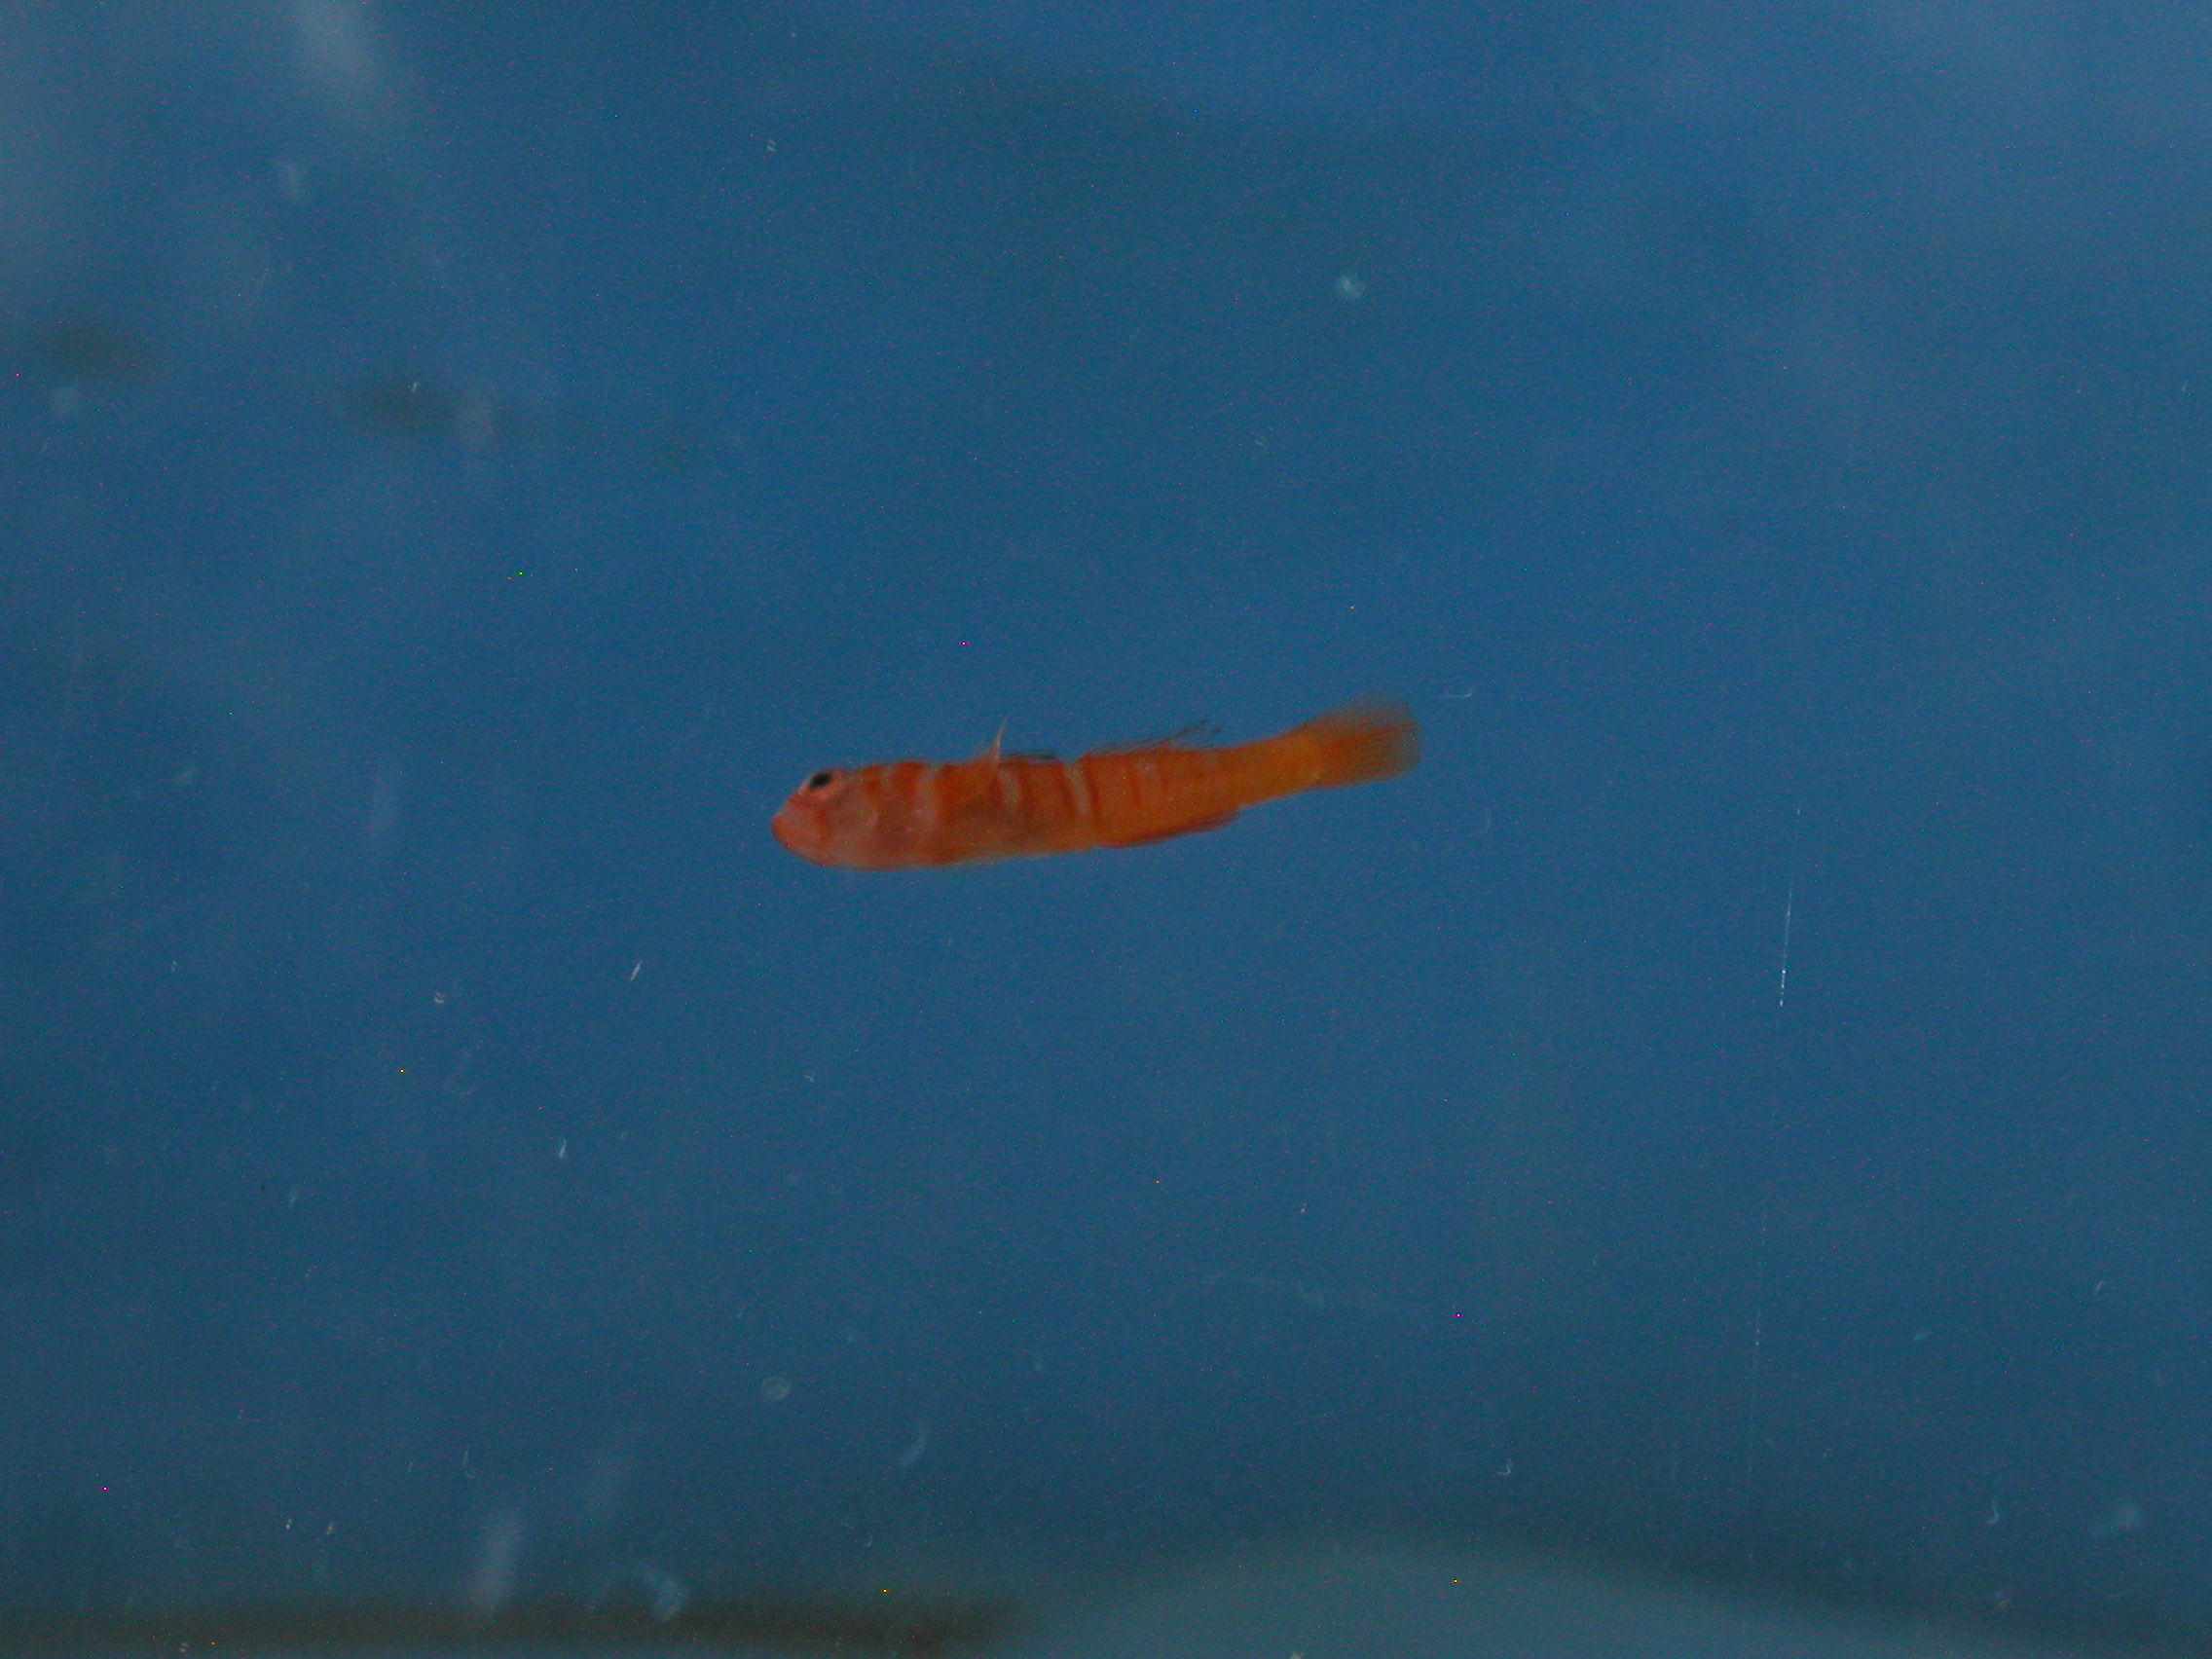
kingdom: Animalia
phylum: Chordata
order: Perciformes
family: Gobiidae
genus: Trimmatom
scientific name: Trimmatom pharus
